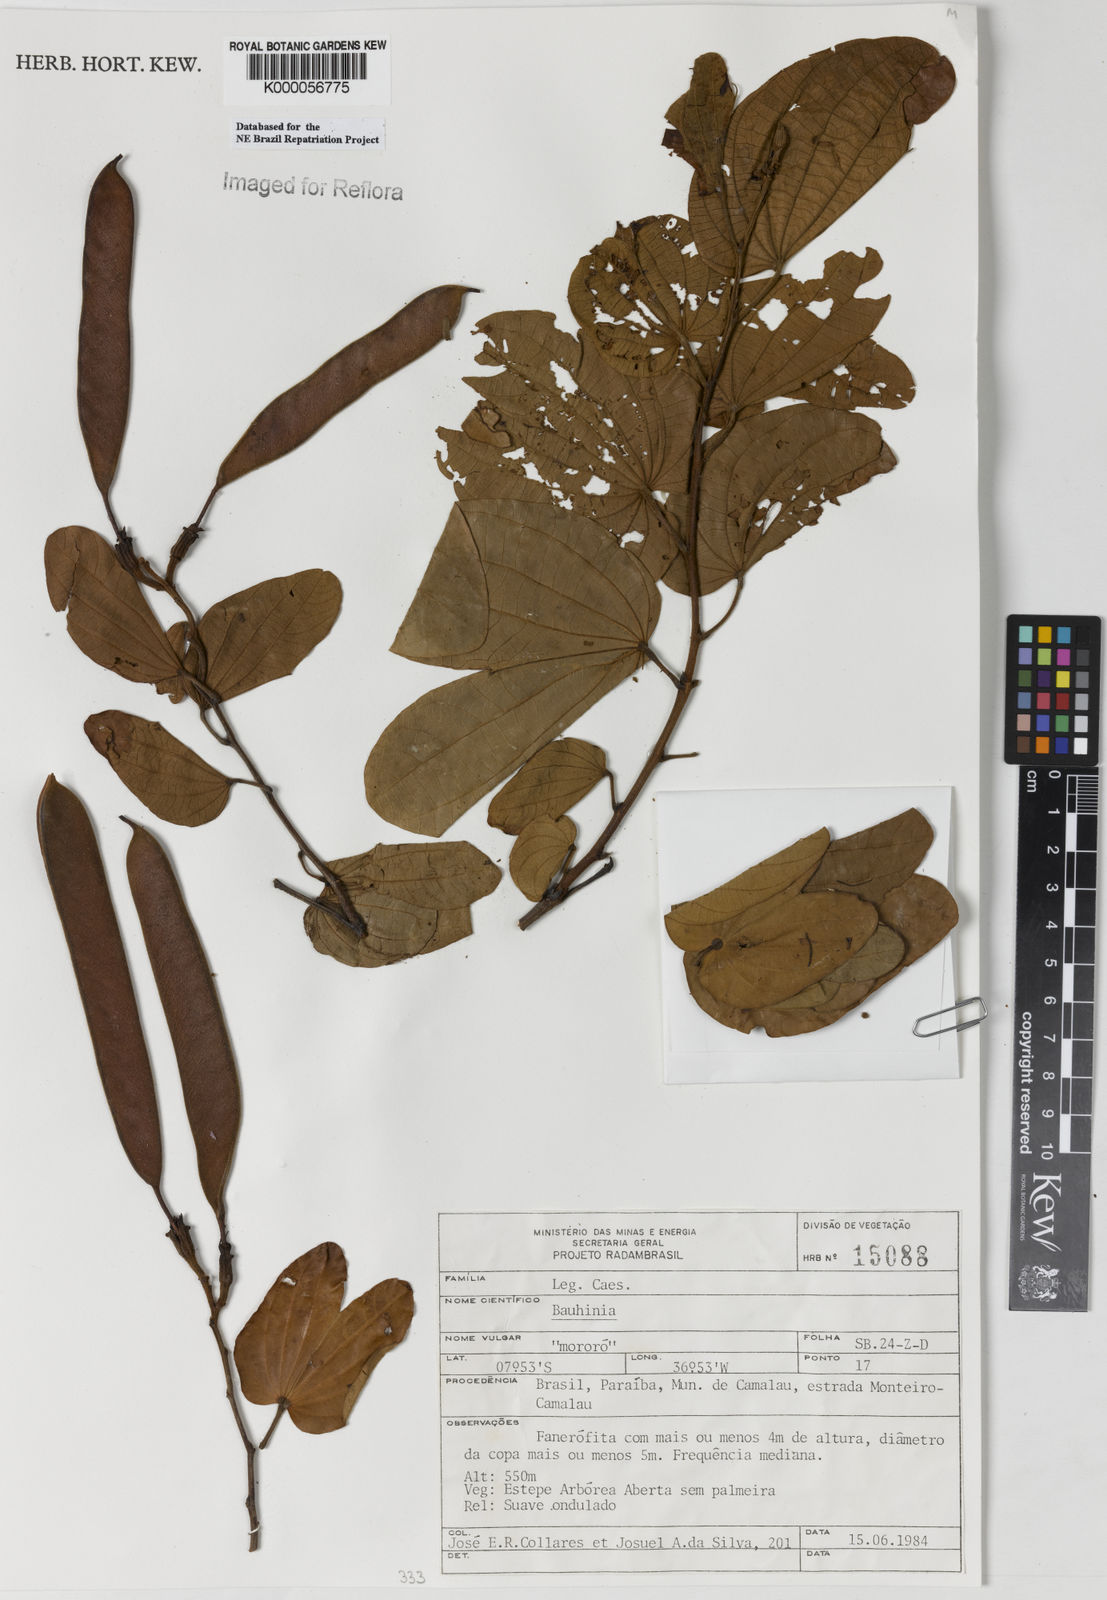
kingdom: Plantae
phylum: Tracheophyta
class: Magnoliopsida
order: Fabales
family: Fabaceae
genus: Bauhinia
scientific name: Bauhinia
